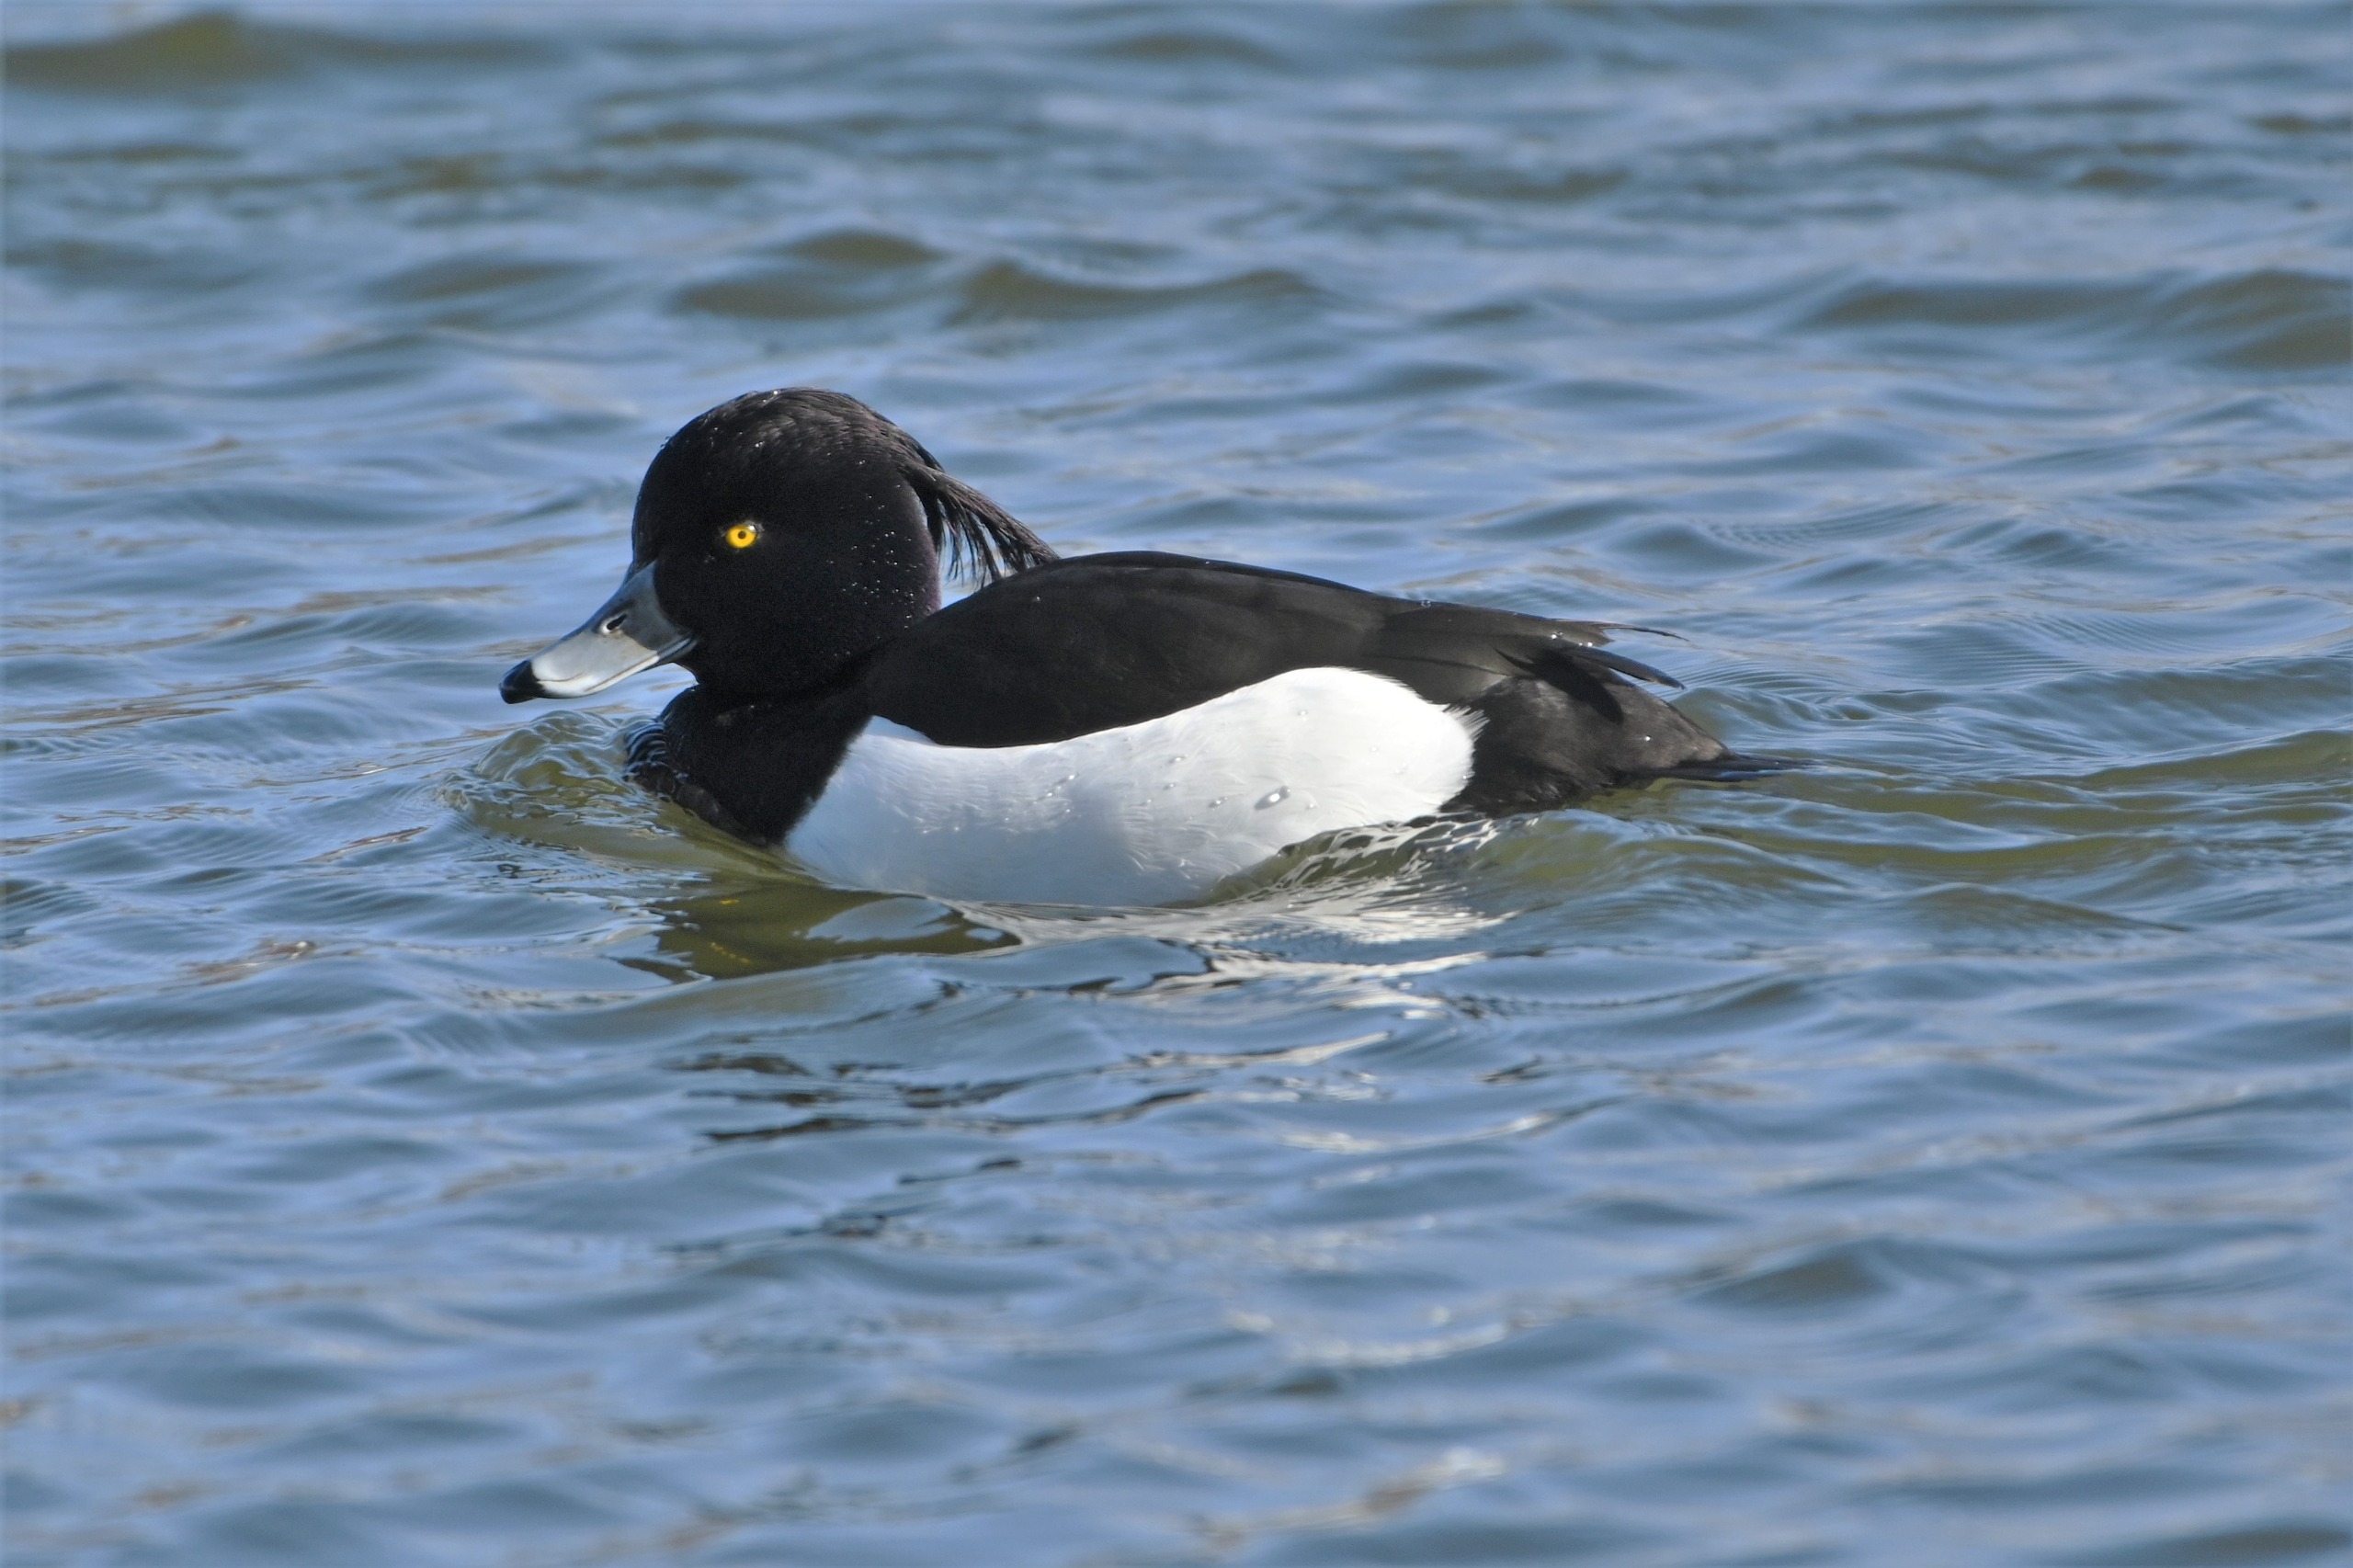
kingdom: Animalia
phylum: Chordata
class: Aves
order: Anseriformes
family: Anatidae
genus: Aythya
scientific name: Aythya fuligula
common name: Troldand
